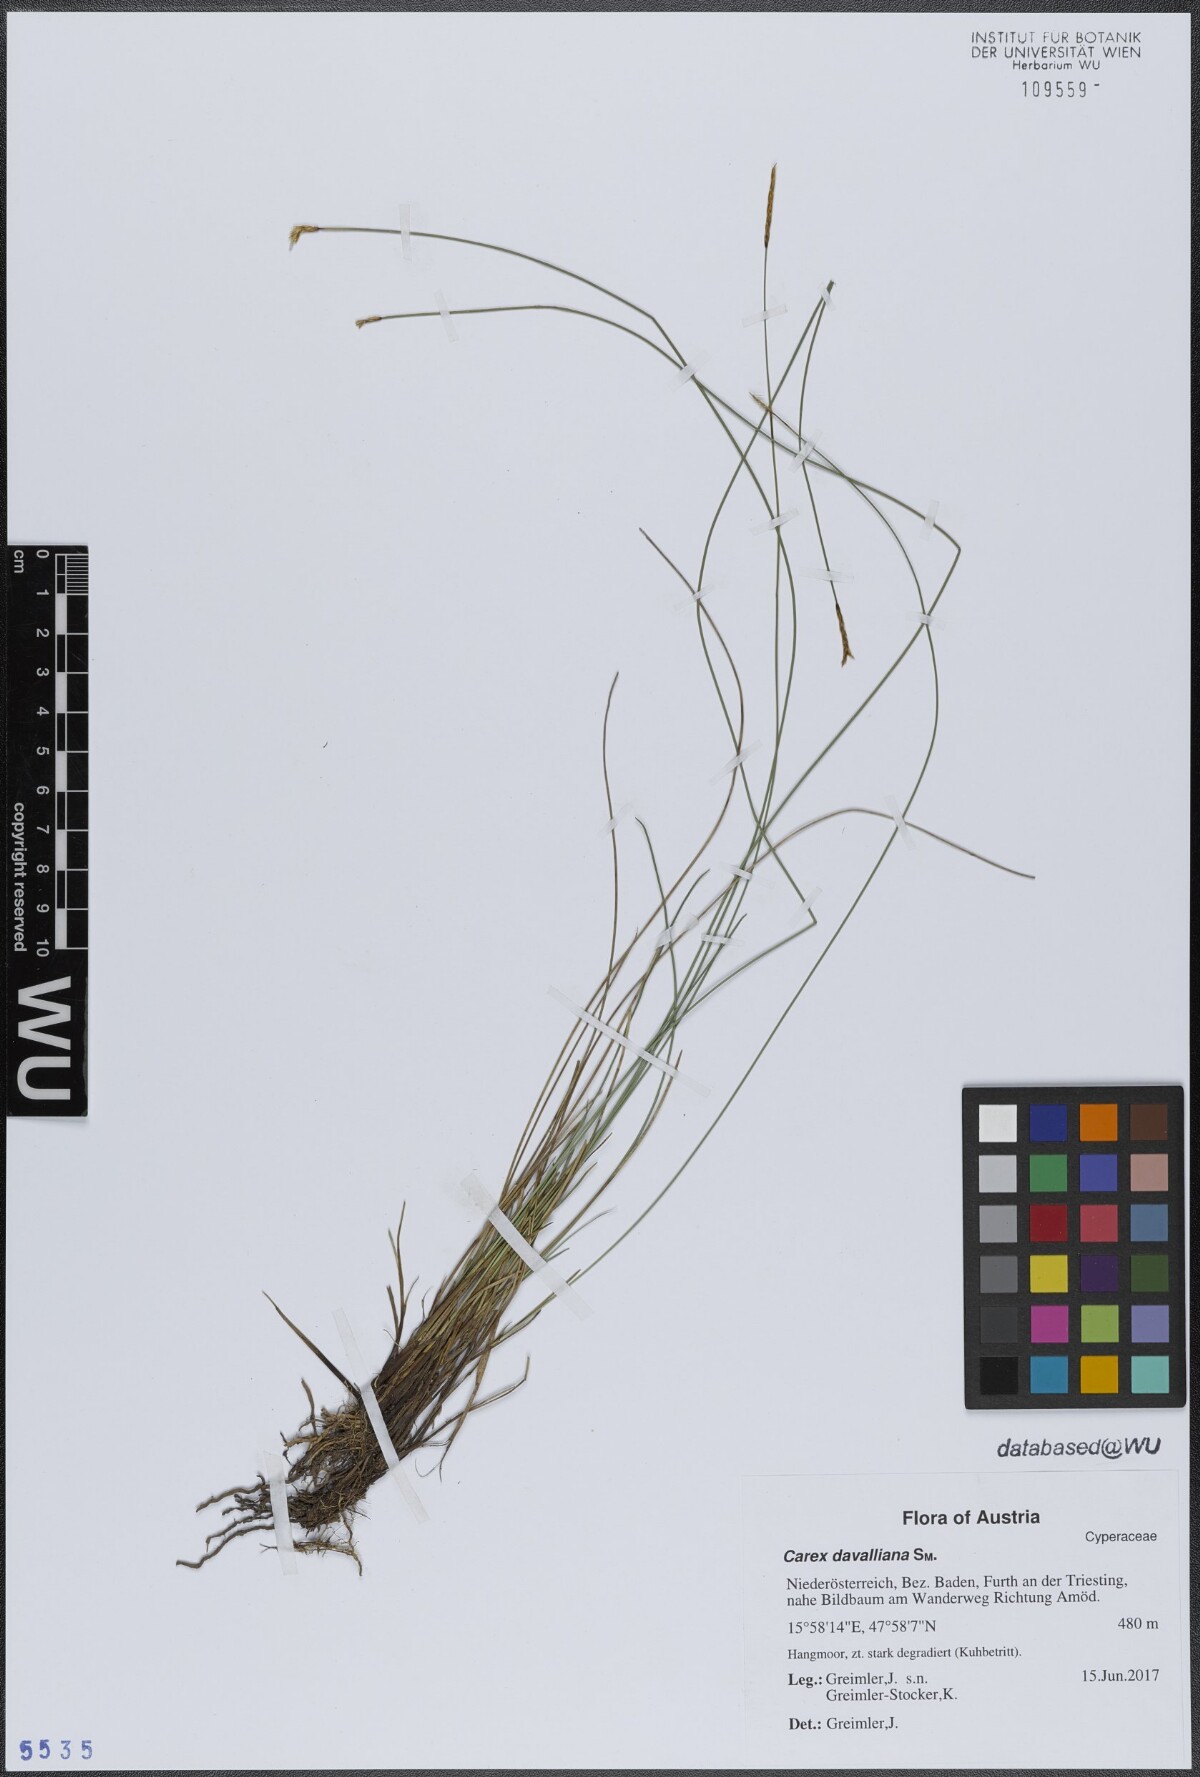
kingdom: Plantae
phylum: Tracheophyta
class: Liliopsida
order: Poales
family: Cyperaceae
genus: Carex
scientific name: Carex davalliana
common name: Davall's sedge
